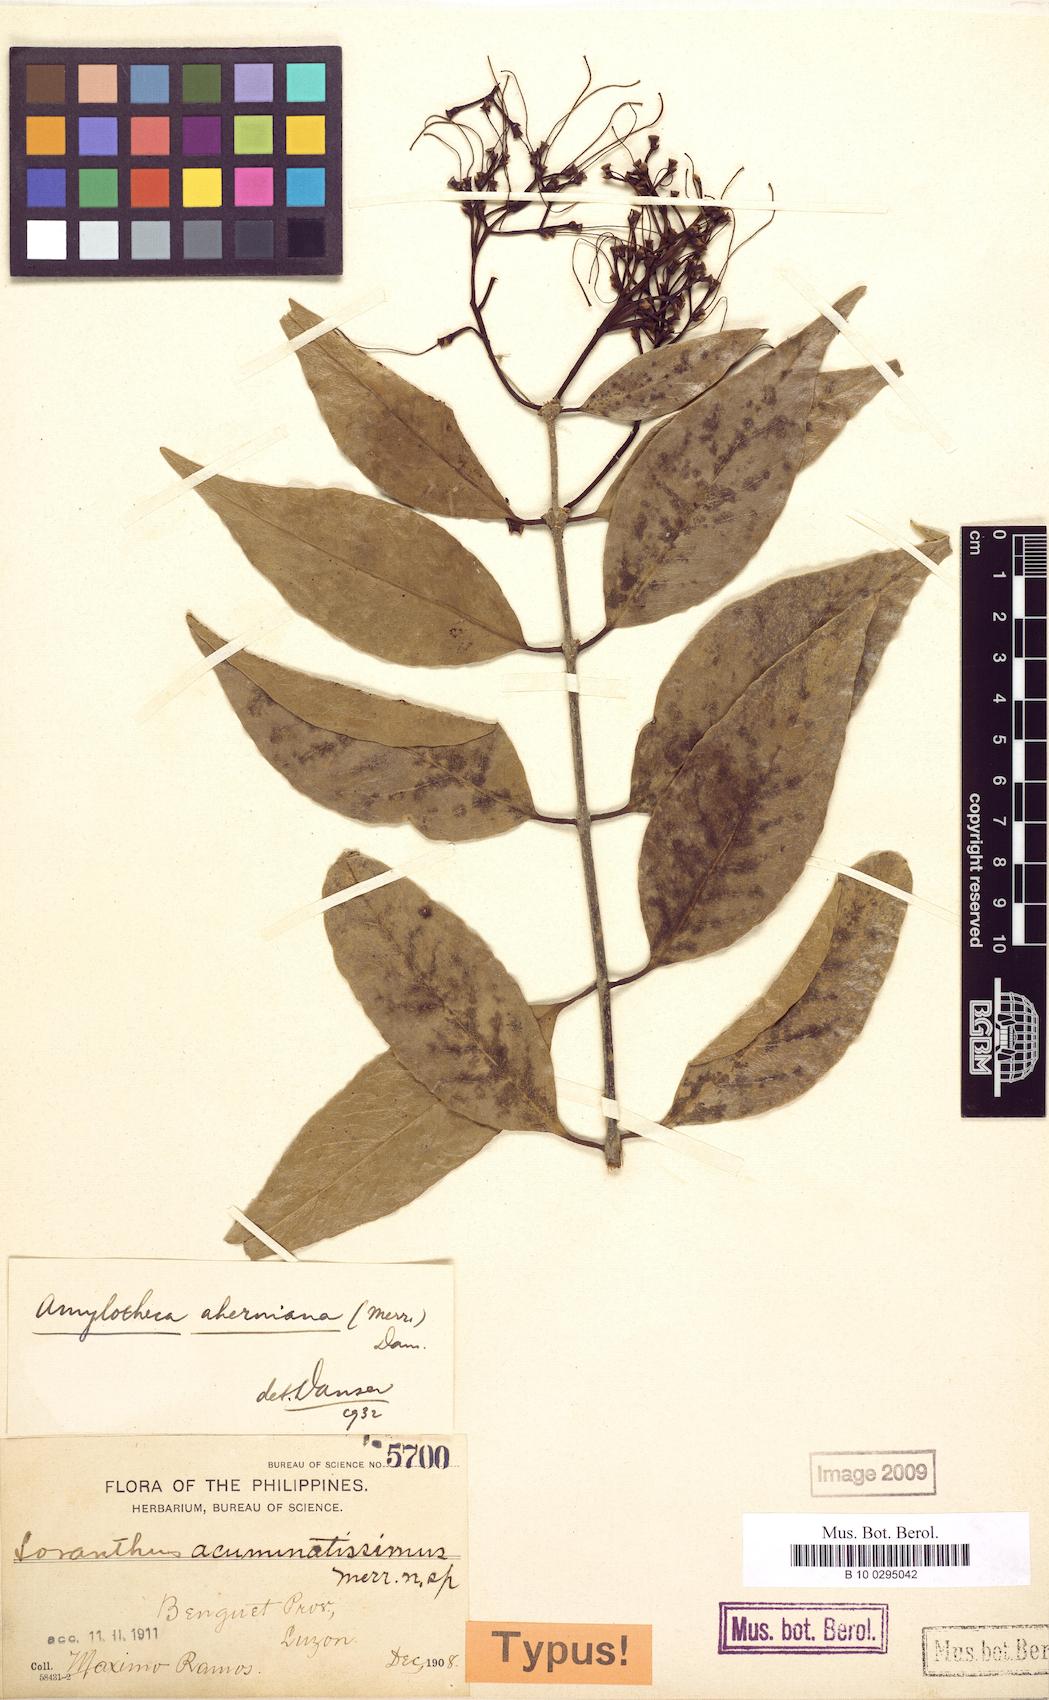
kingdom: Plantae
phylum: Tracheophyta
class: Magnoliopsida
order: Santalales
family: Loranthaceae
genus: Decaisnina
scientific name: Decaisnina aherniana
